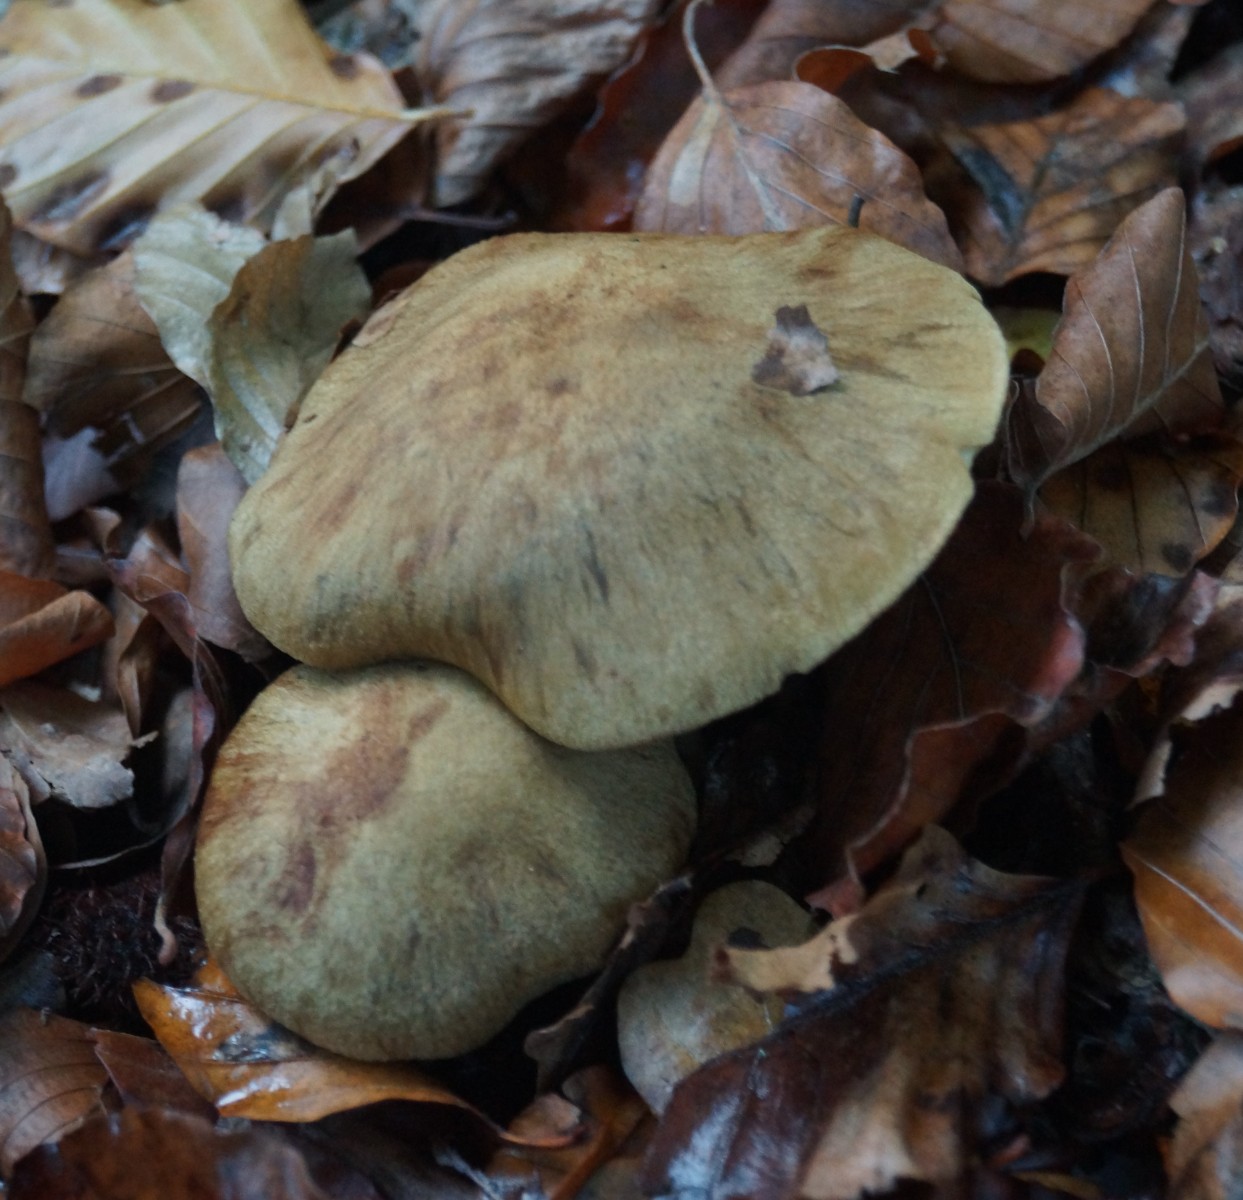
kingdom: Fungi
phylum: Basidiomycota
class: Agaricomycetes
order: Agaricales
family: Cortinariaceae
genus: Cortinarius
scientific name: Cortinarius subcotoneus
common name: gyldenbladet slørhat
